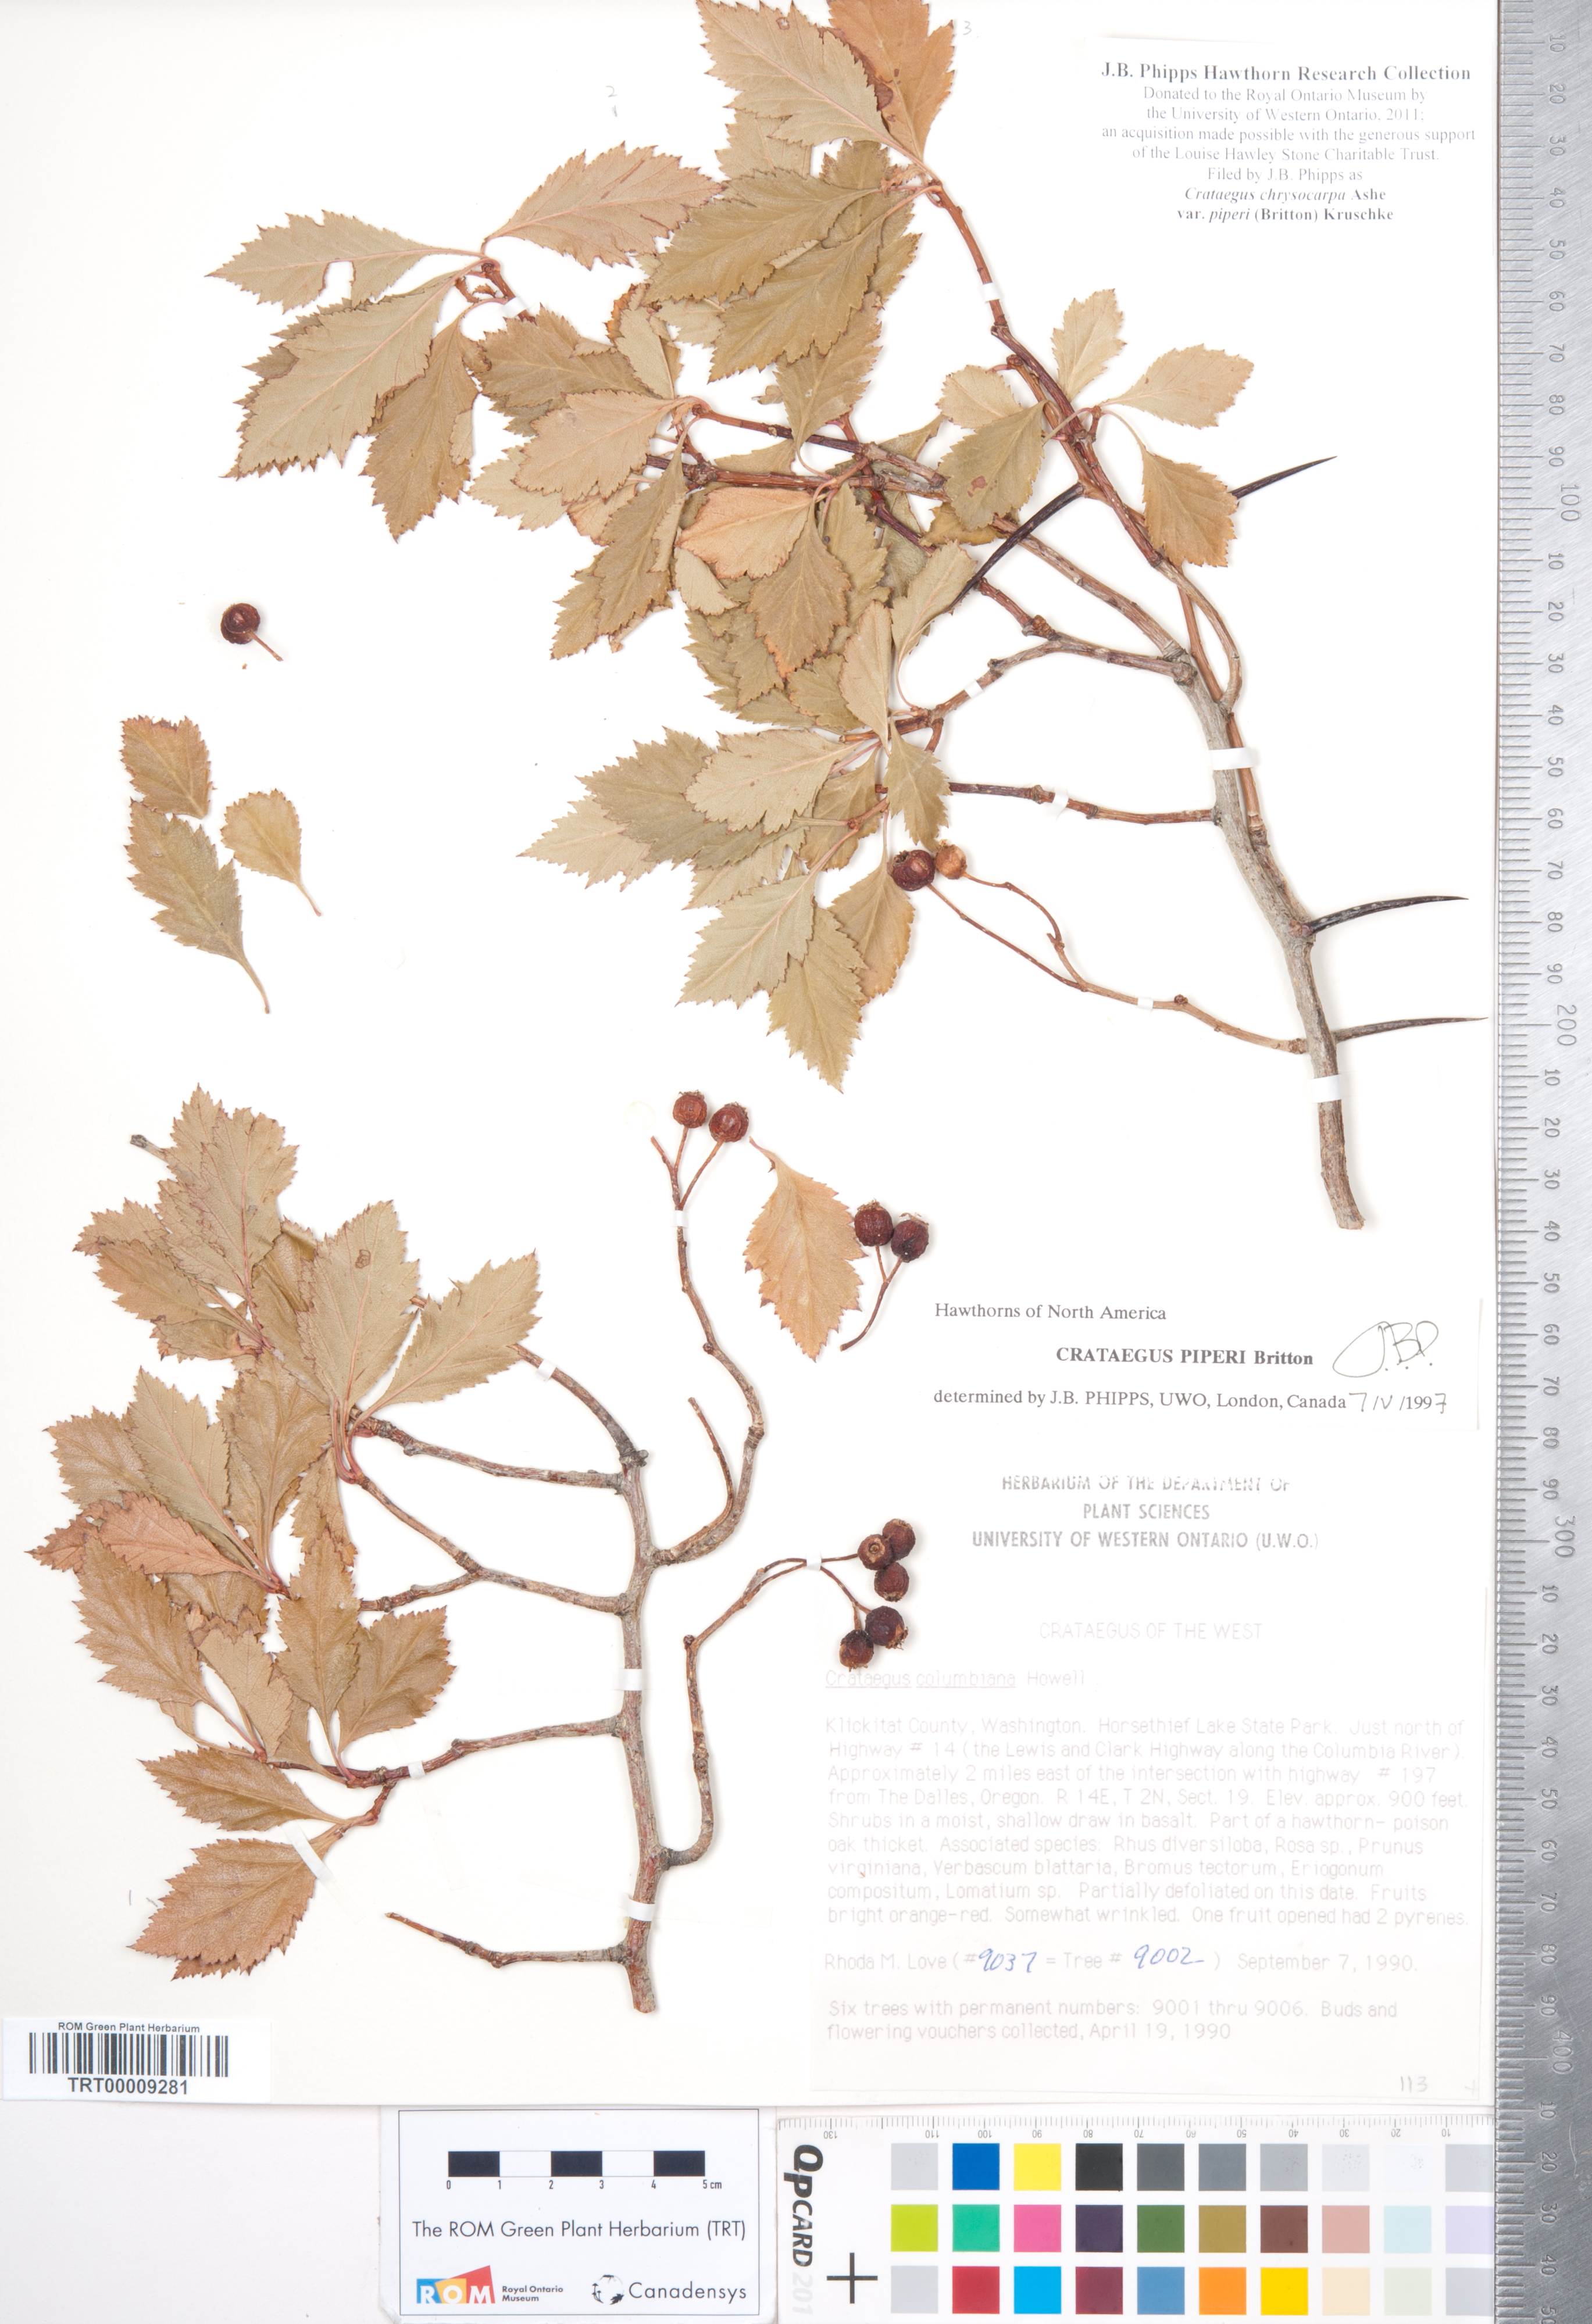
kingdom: Plantae
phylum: Tracheophyta
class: Magnoliopsida
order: Rosales
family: Rosaceae
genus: Crataegus
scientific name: Crataegus piperi
